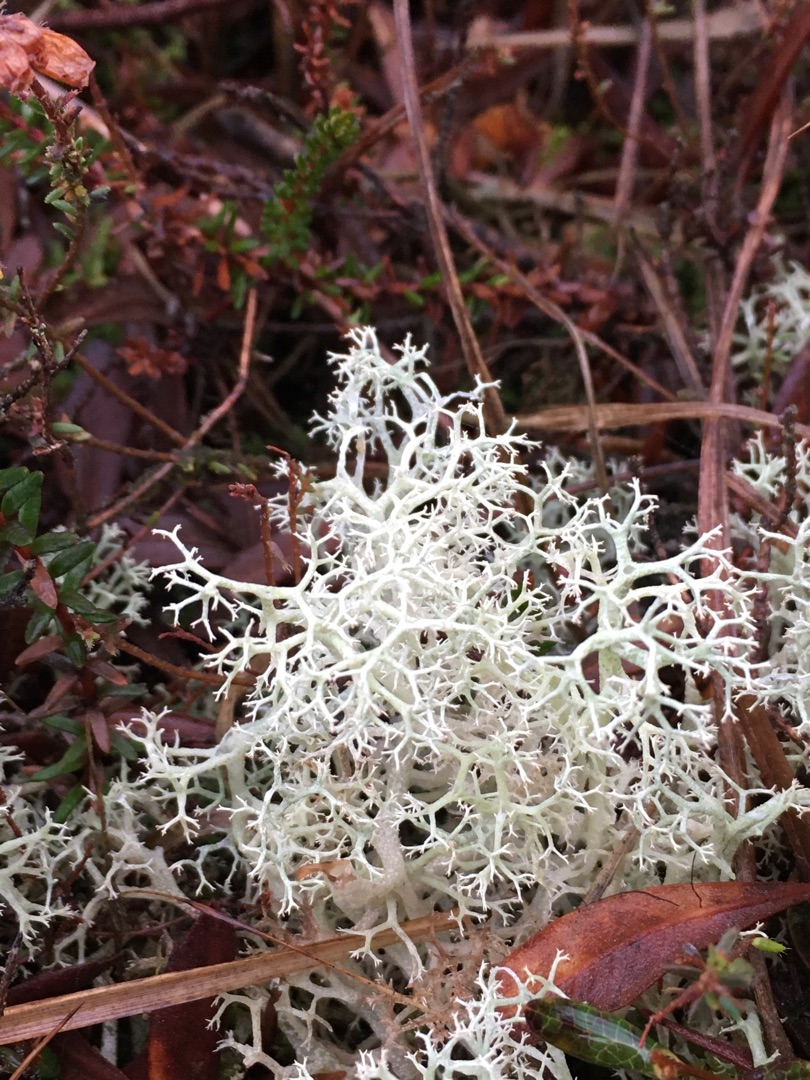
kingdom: Fungi
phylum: Ascomycota
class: Lecanoromycetes
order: Lecanorales
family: Cladoniaceae
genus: Cladonia
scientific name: Cladonia portentosa
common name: Hede-rensdyrlav
